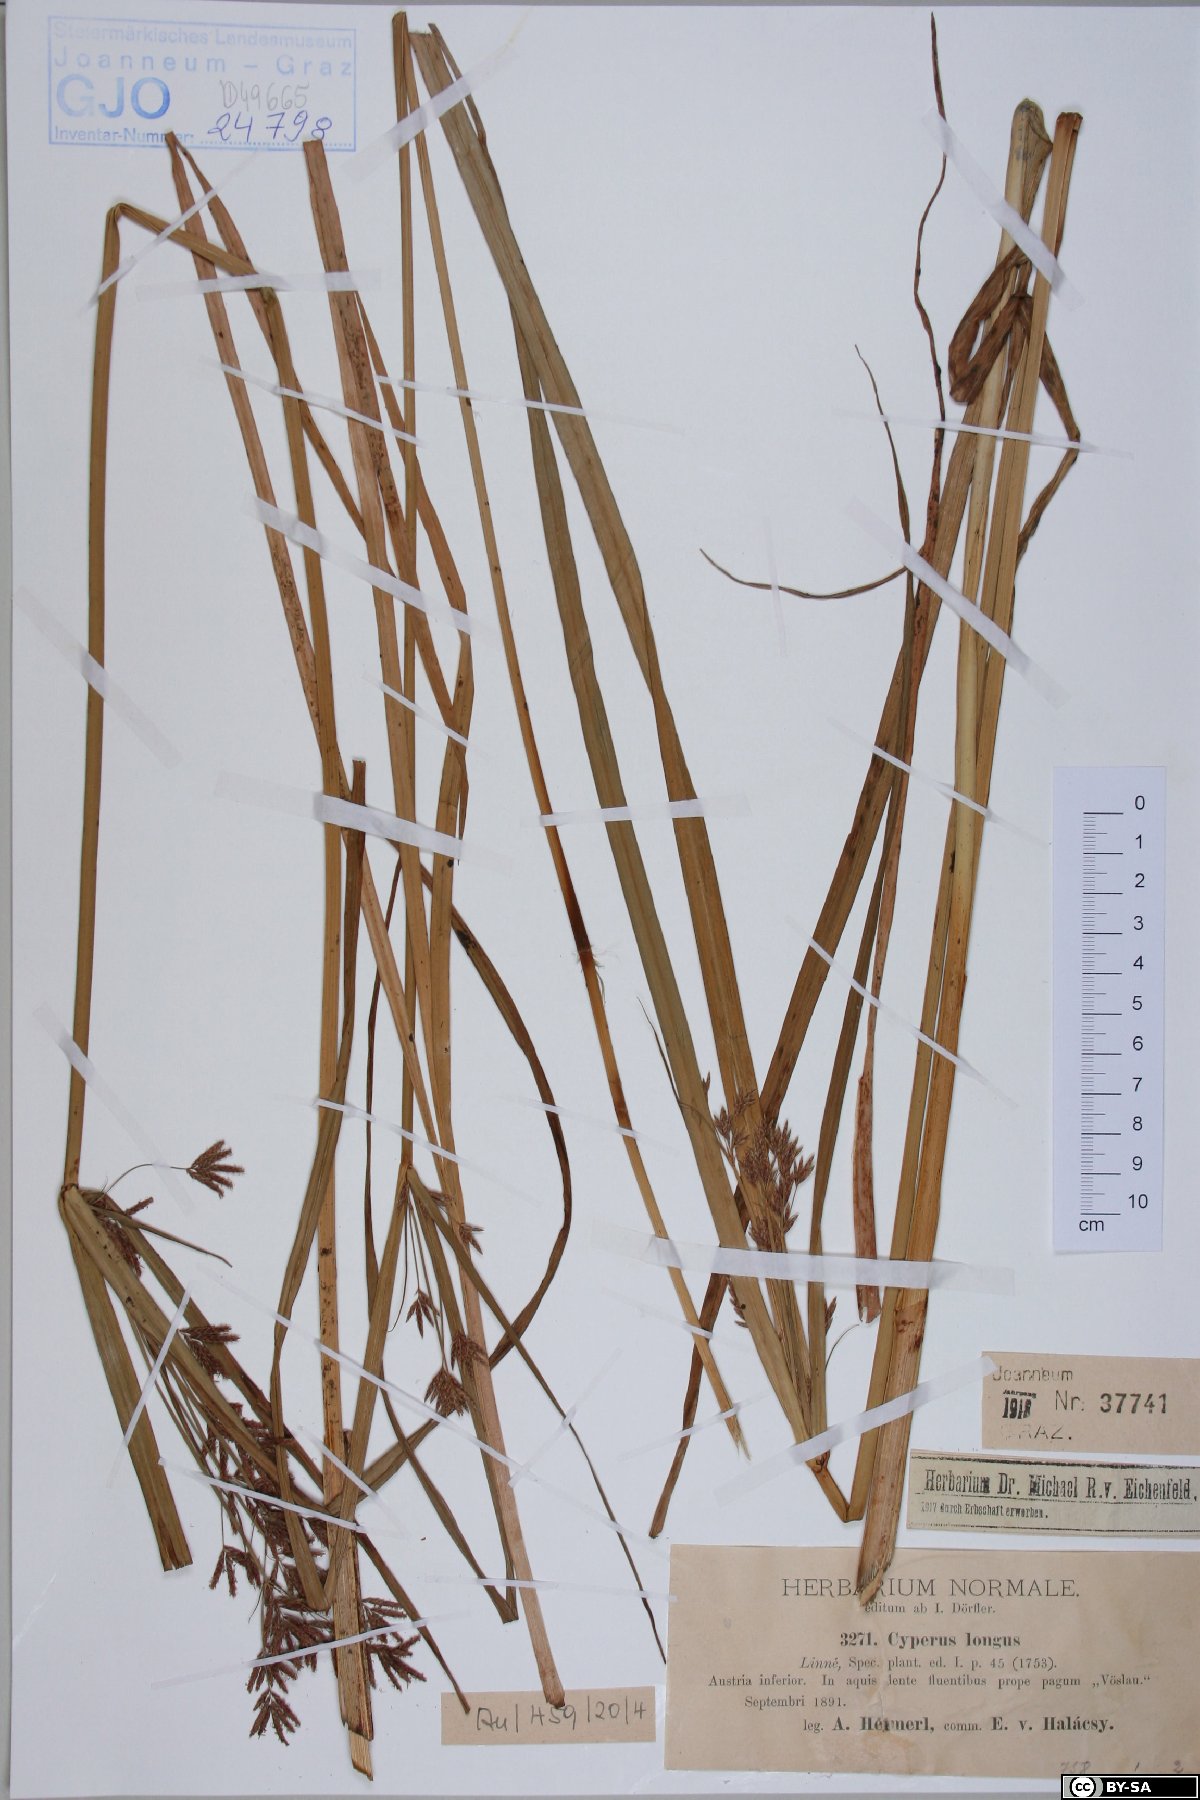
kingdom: Plantae
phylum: Tracheophyta
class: Liliopsida
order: Poales
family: Cyperaceae
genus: Cyperus
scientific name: Cyperus longus
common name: Galingale
